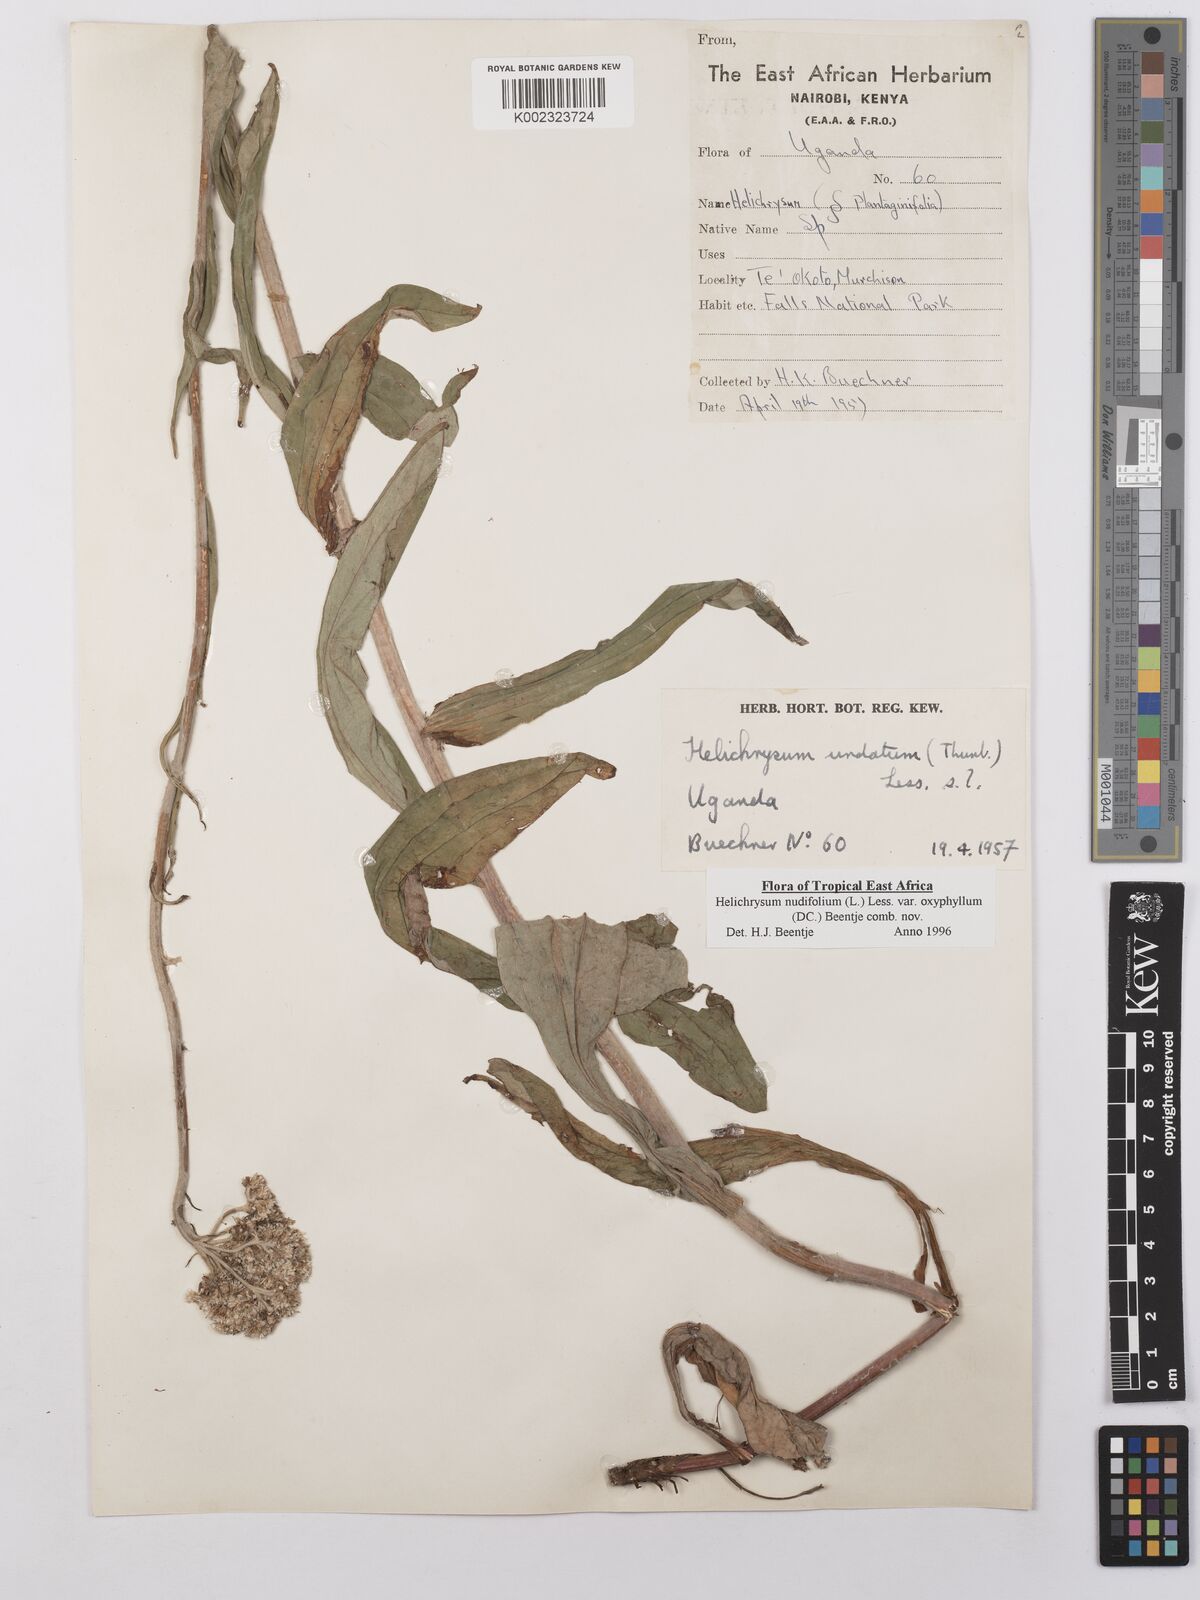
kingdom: Plantae
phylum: Tracheophyta
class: Magnoliopsida
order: Asterales
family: Asteraceae
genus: Helichrysum
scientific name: Helichrysum nudifolium
